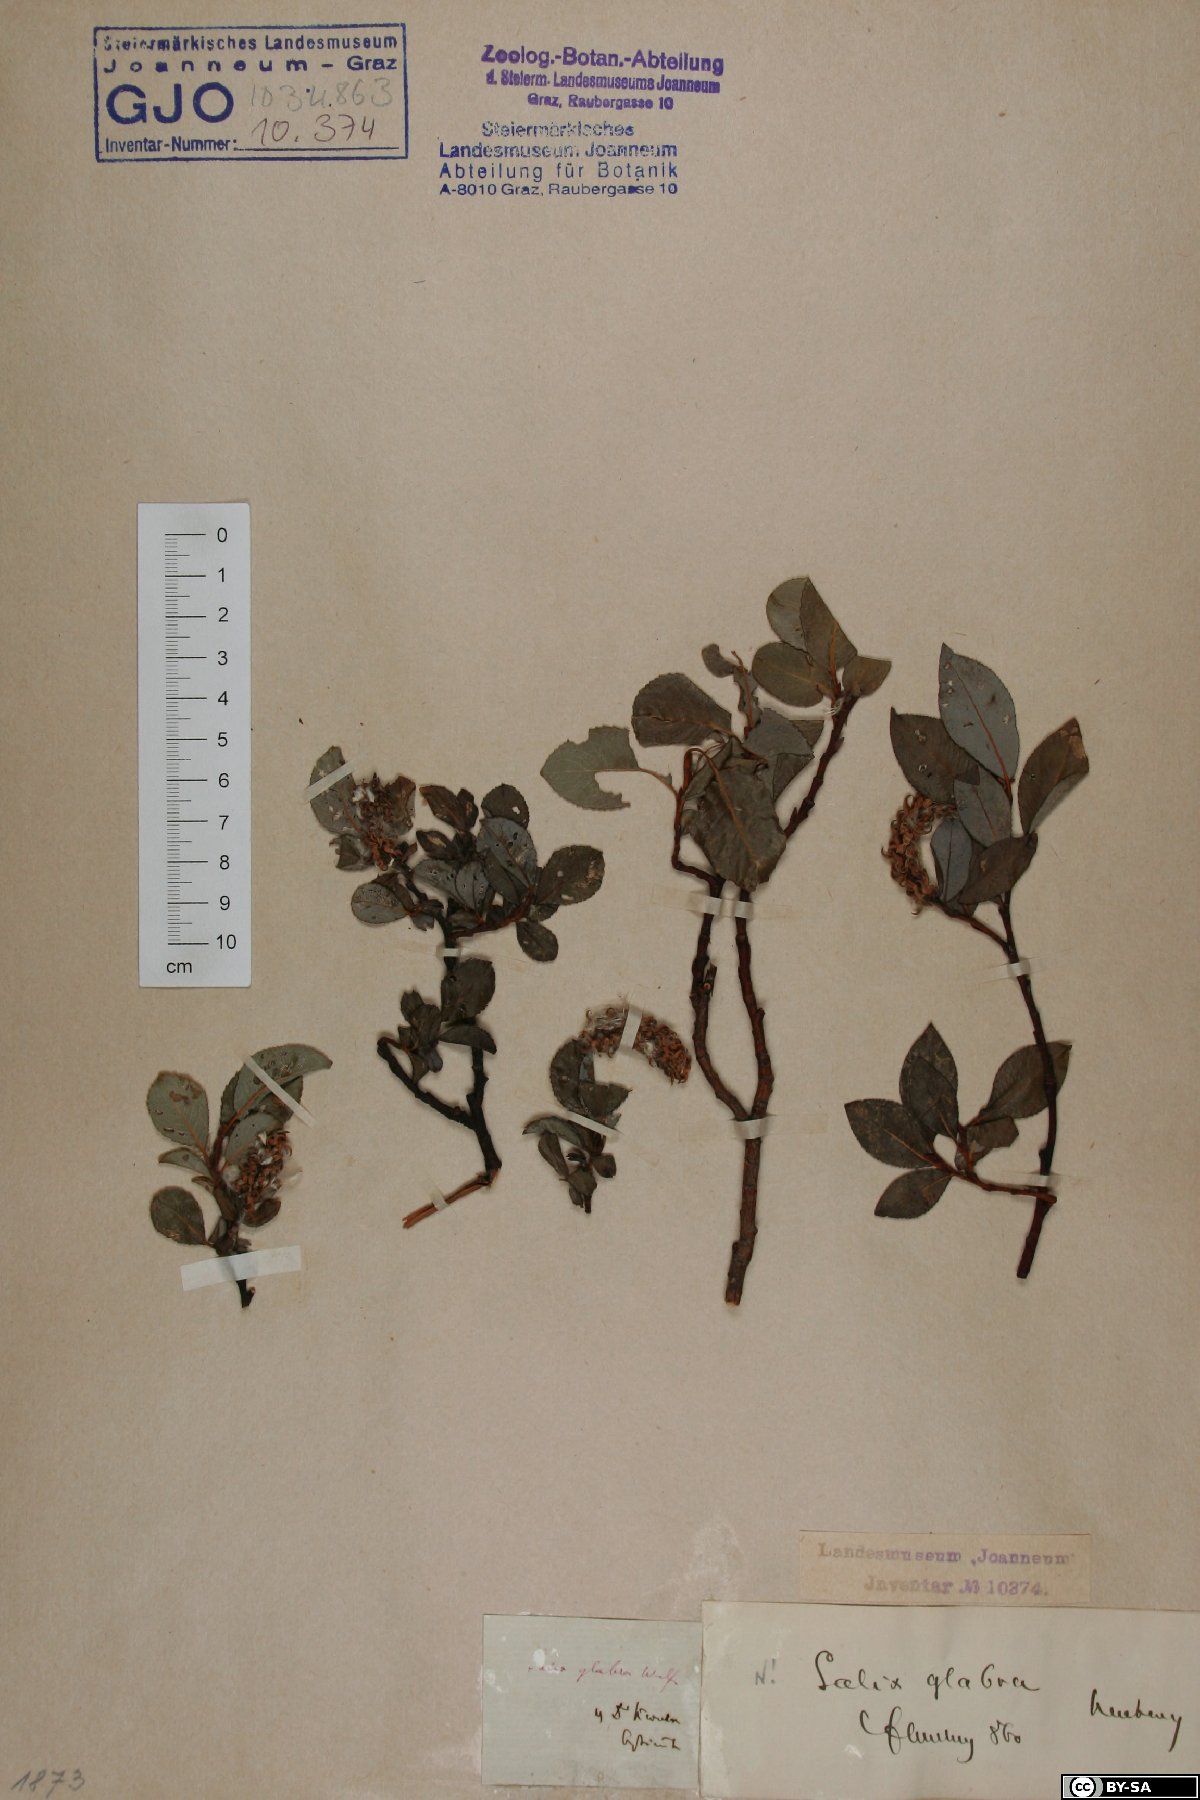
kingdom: Plantae
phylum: Tracheophyta
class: Magnoliopsida
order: Malpighiales
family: Salicaceae
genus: Salix
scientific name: Salix glabra
